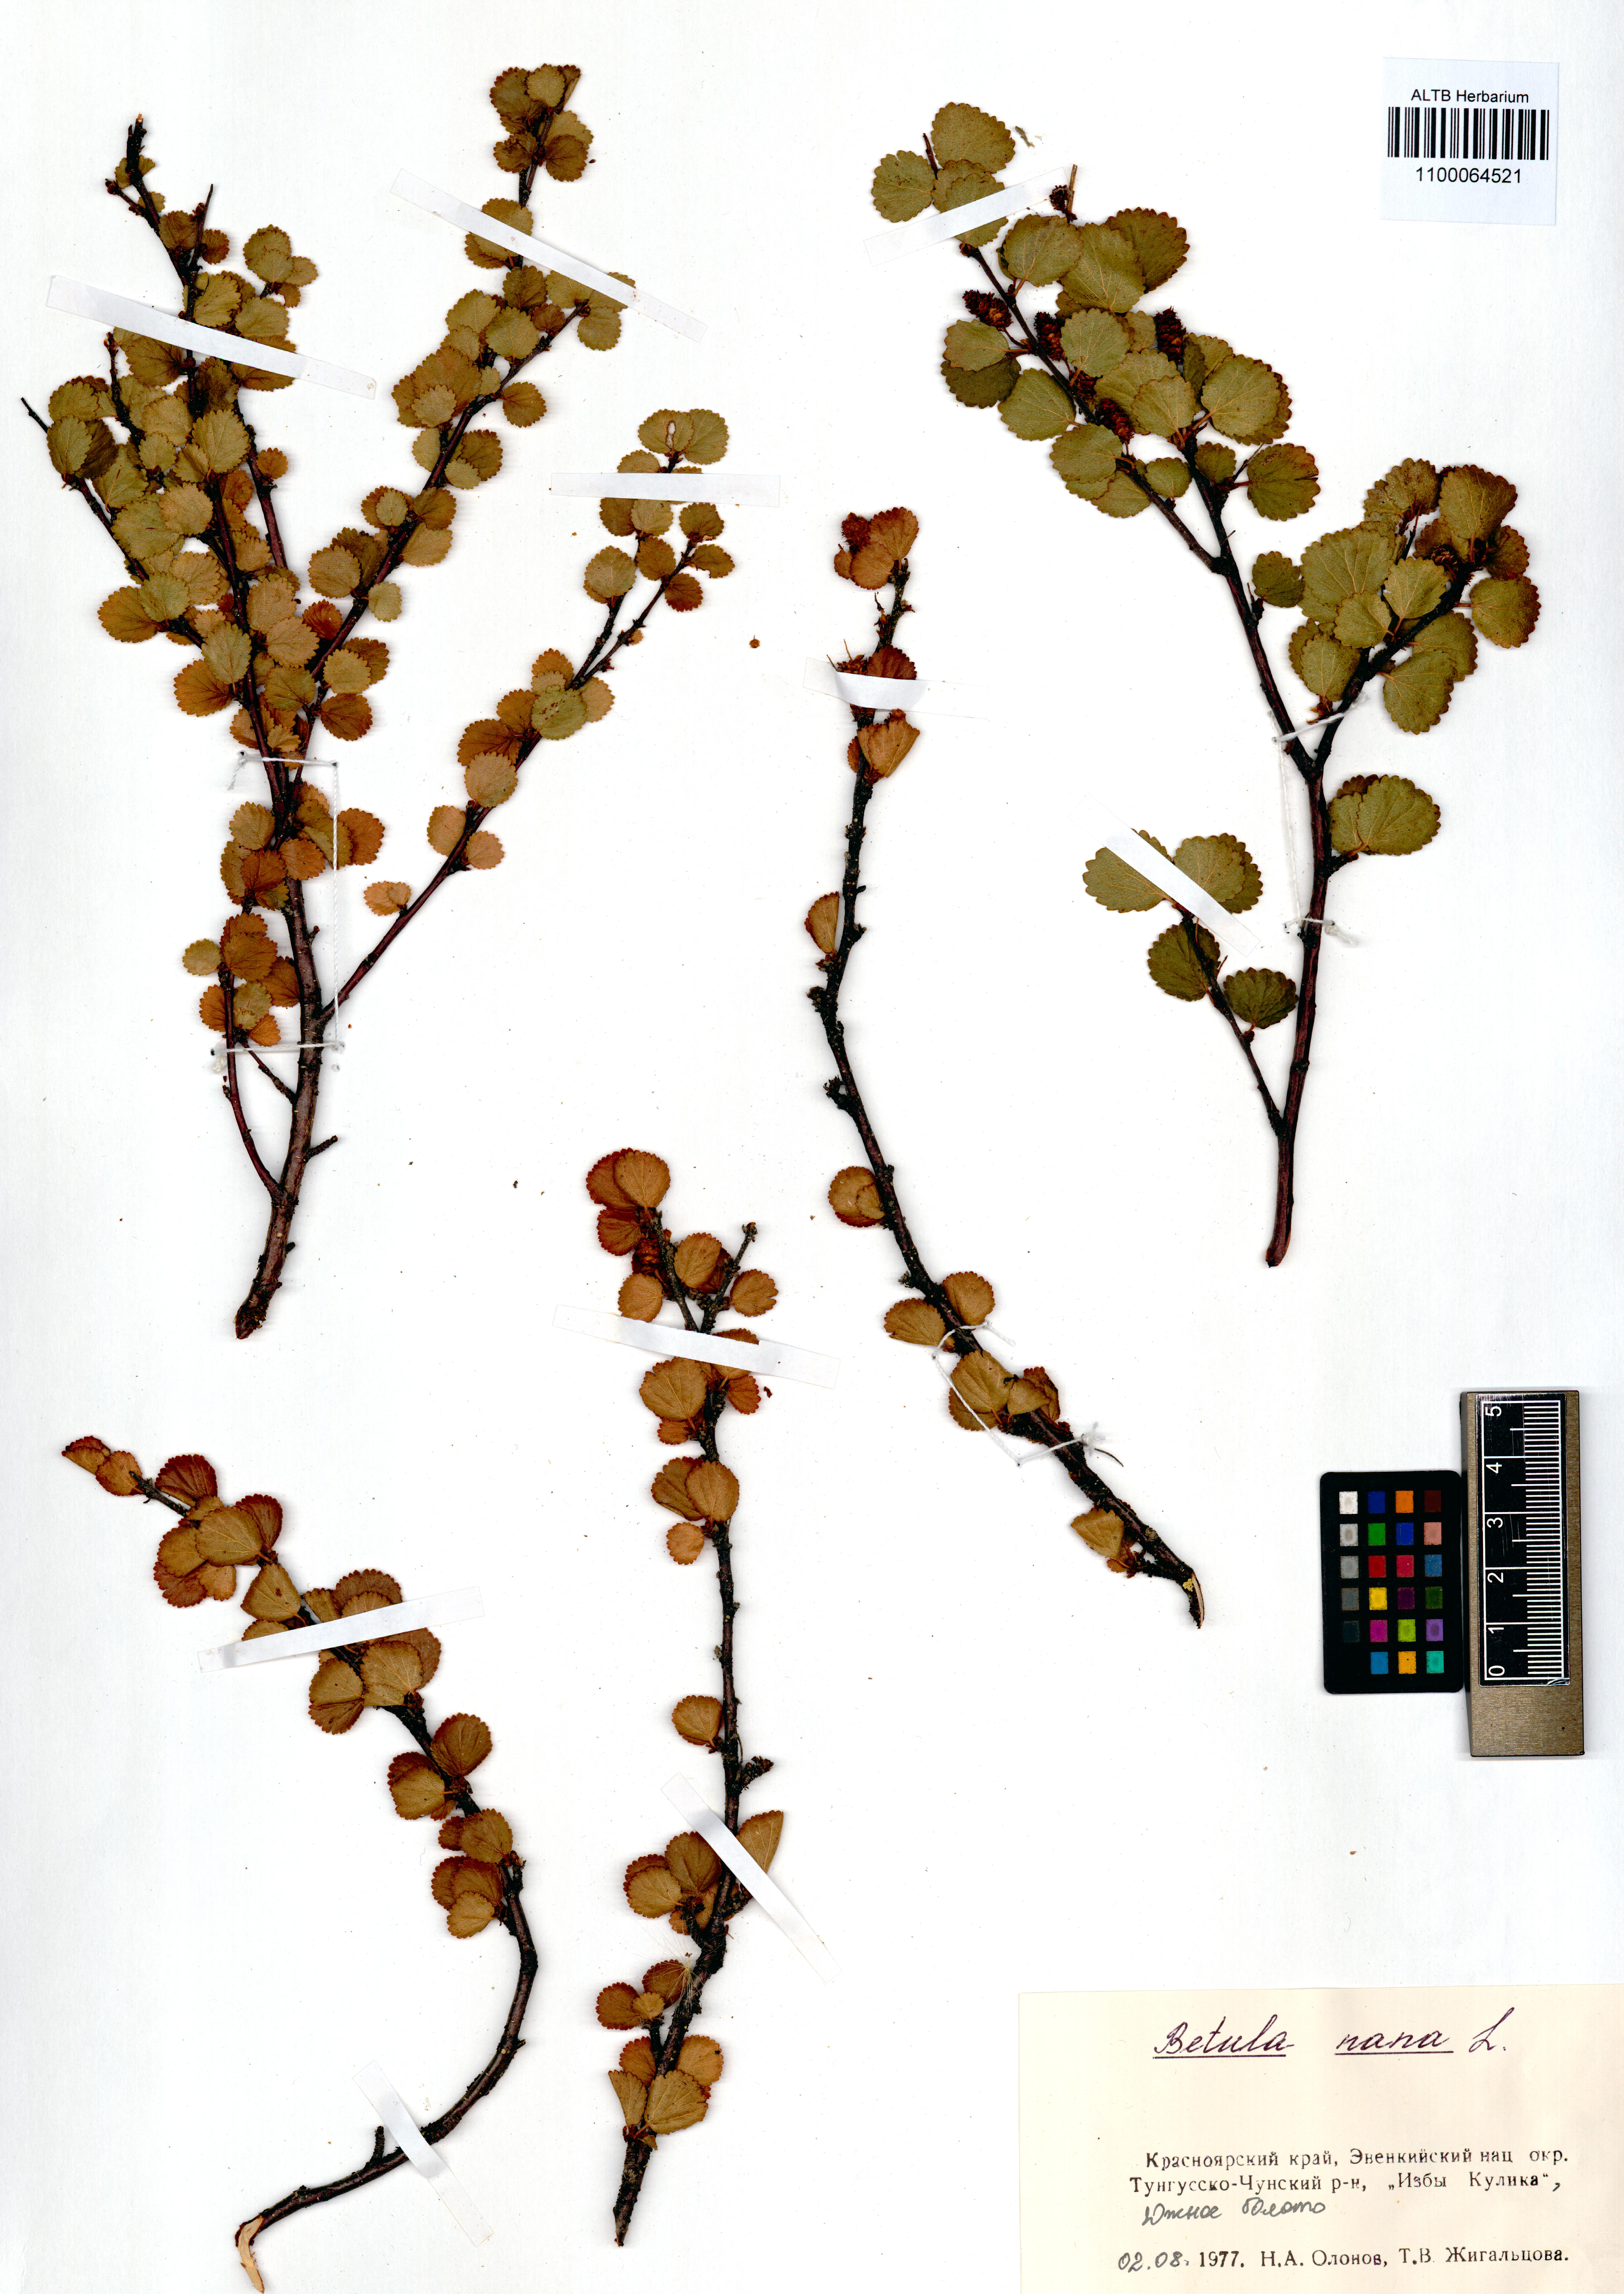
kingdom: Plantae
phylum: Tracheophyta
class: Magnoliopsida
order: Fagales
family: Betulaceae
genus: Betula
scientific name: Betula nana
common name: Arctic dwarf birch
